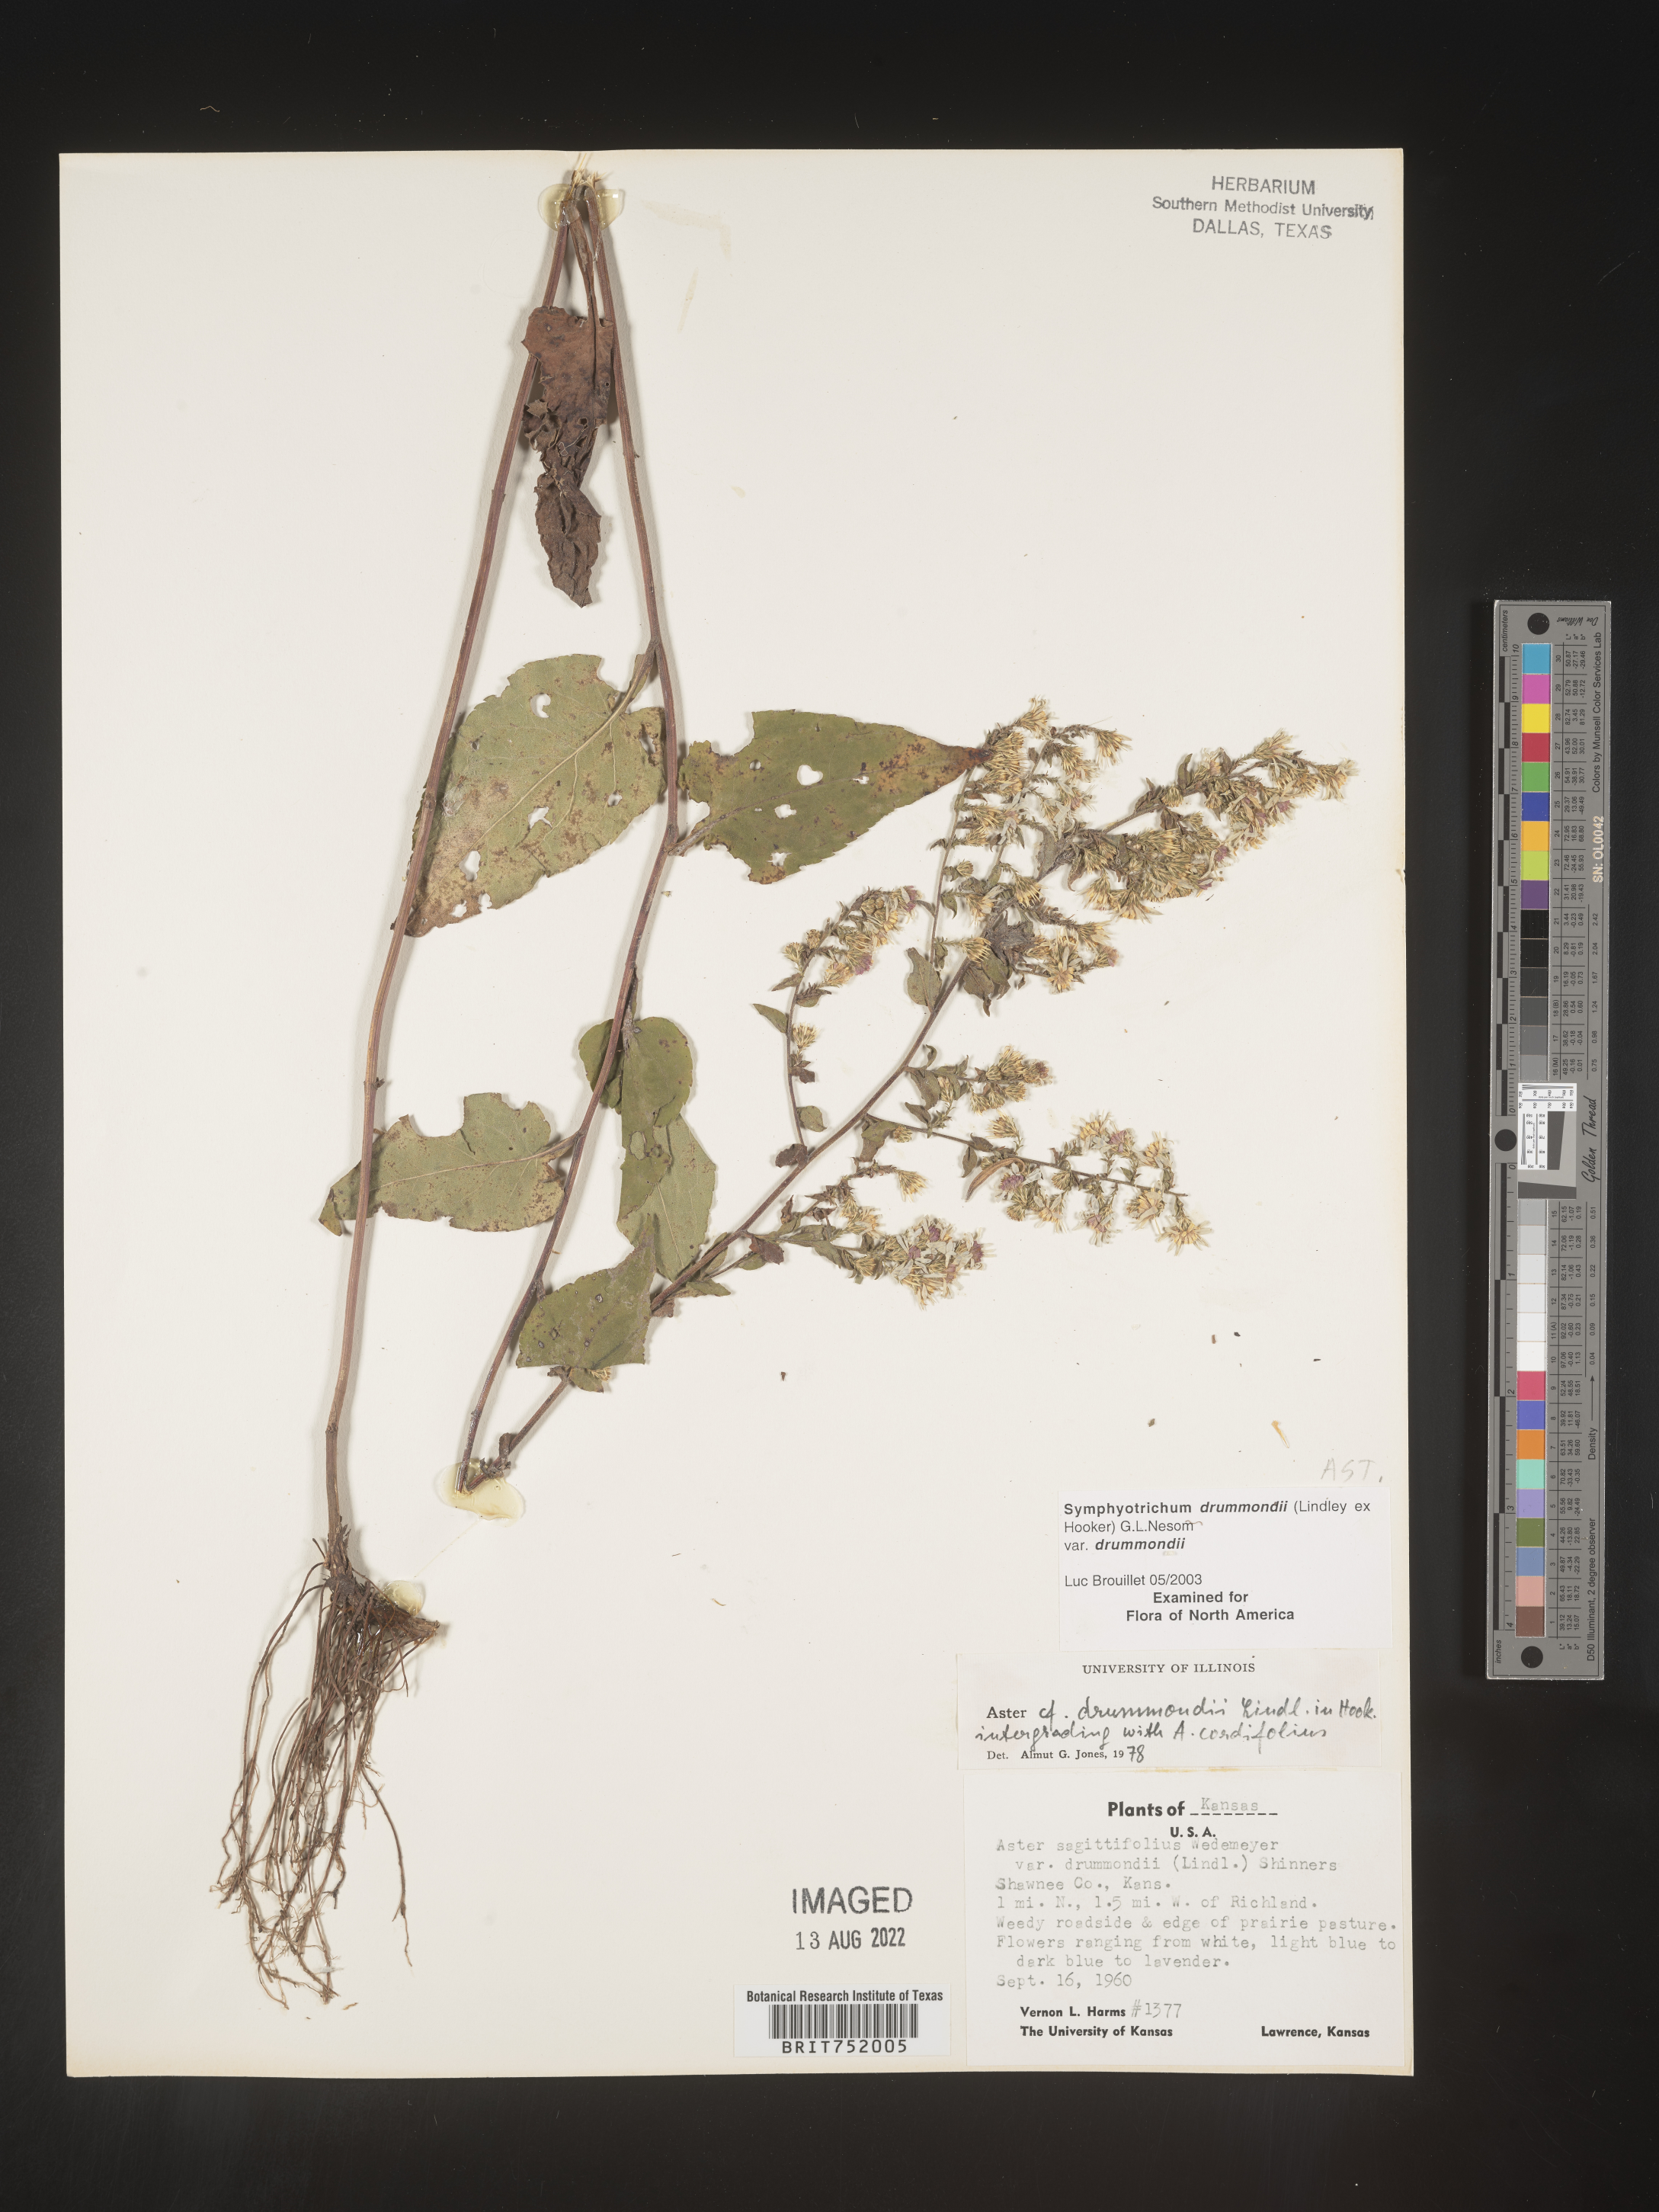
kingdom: Plantae
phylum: Tracheophyta
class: Magnoliopsida
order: Asterales
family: Asteraceae
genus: Symphyotrichum
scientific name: Symphyotrichum drummondii
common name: Drummond's aster
